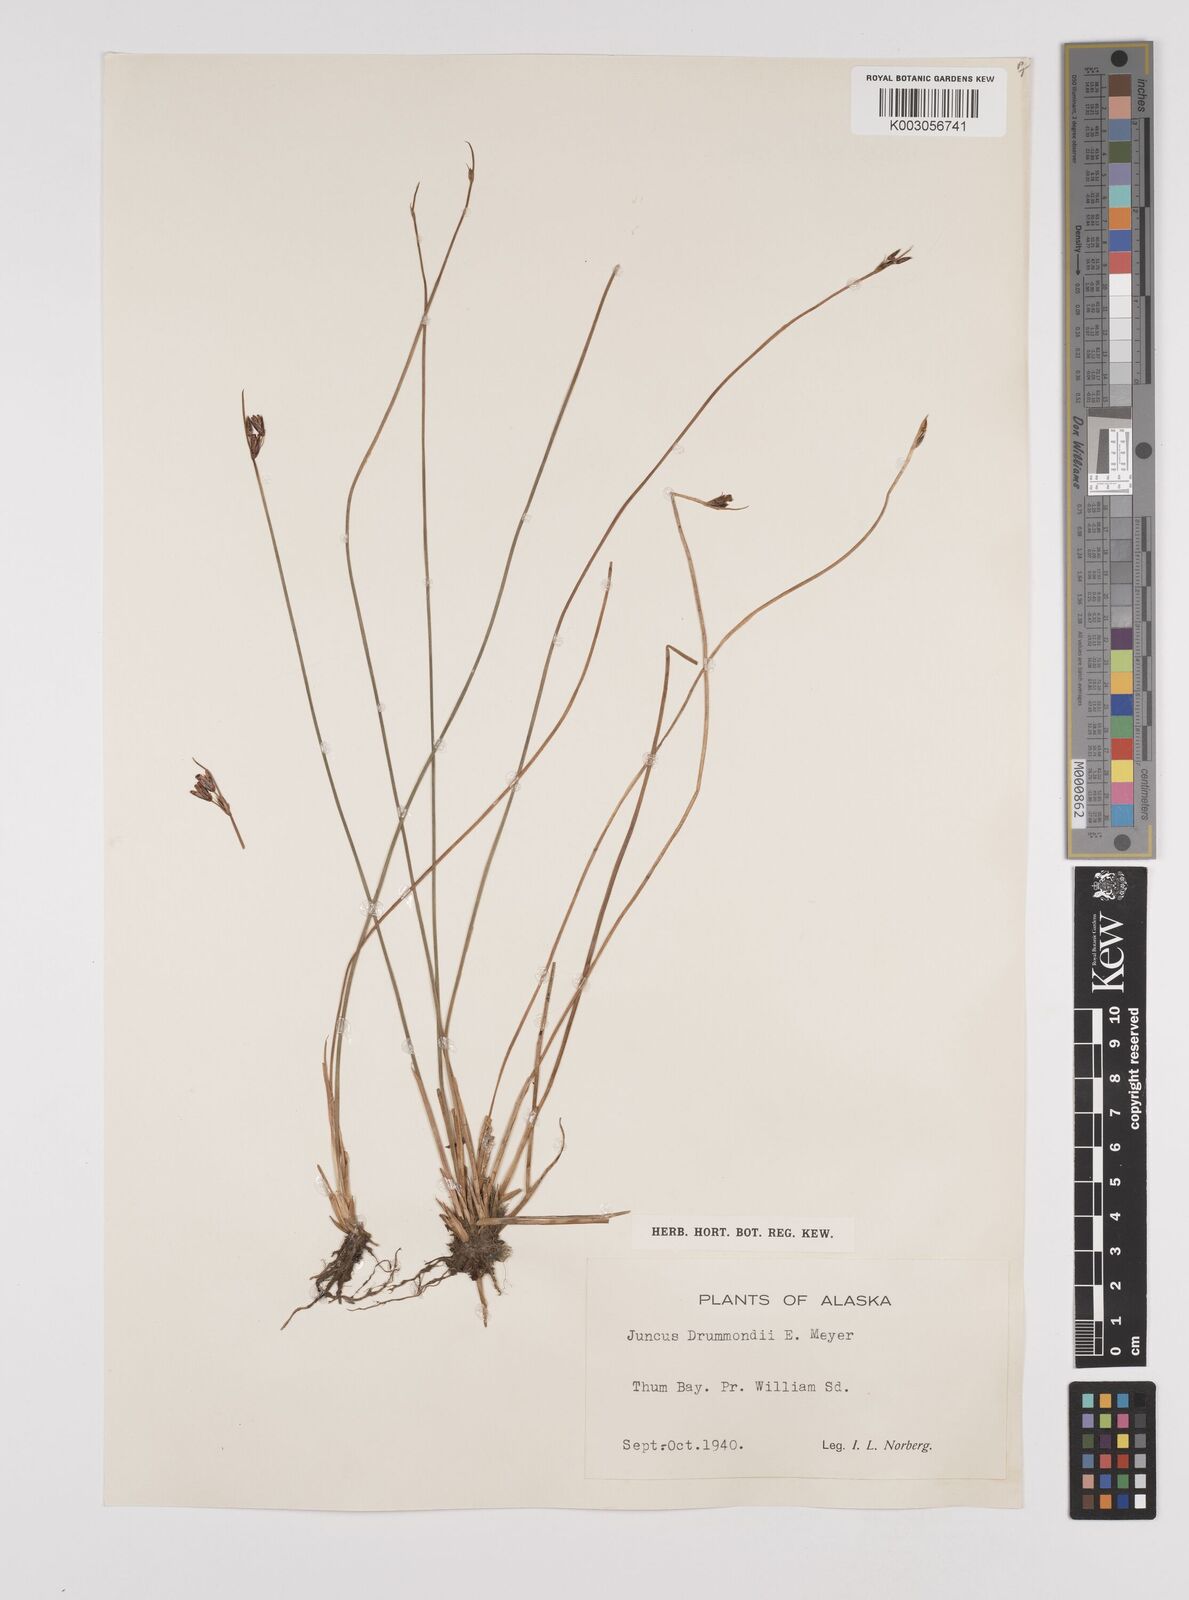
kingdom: Plantae
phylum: Tracheophyta
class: Liliopsida
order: Poales
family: Juncaceae
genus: Juncus
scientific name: Juncus drummondii
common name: Drummond's rush
